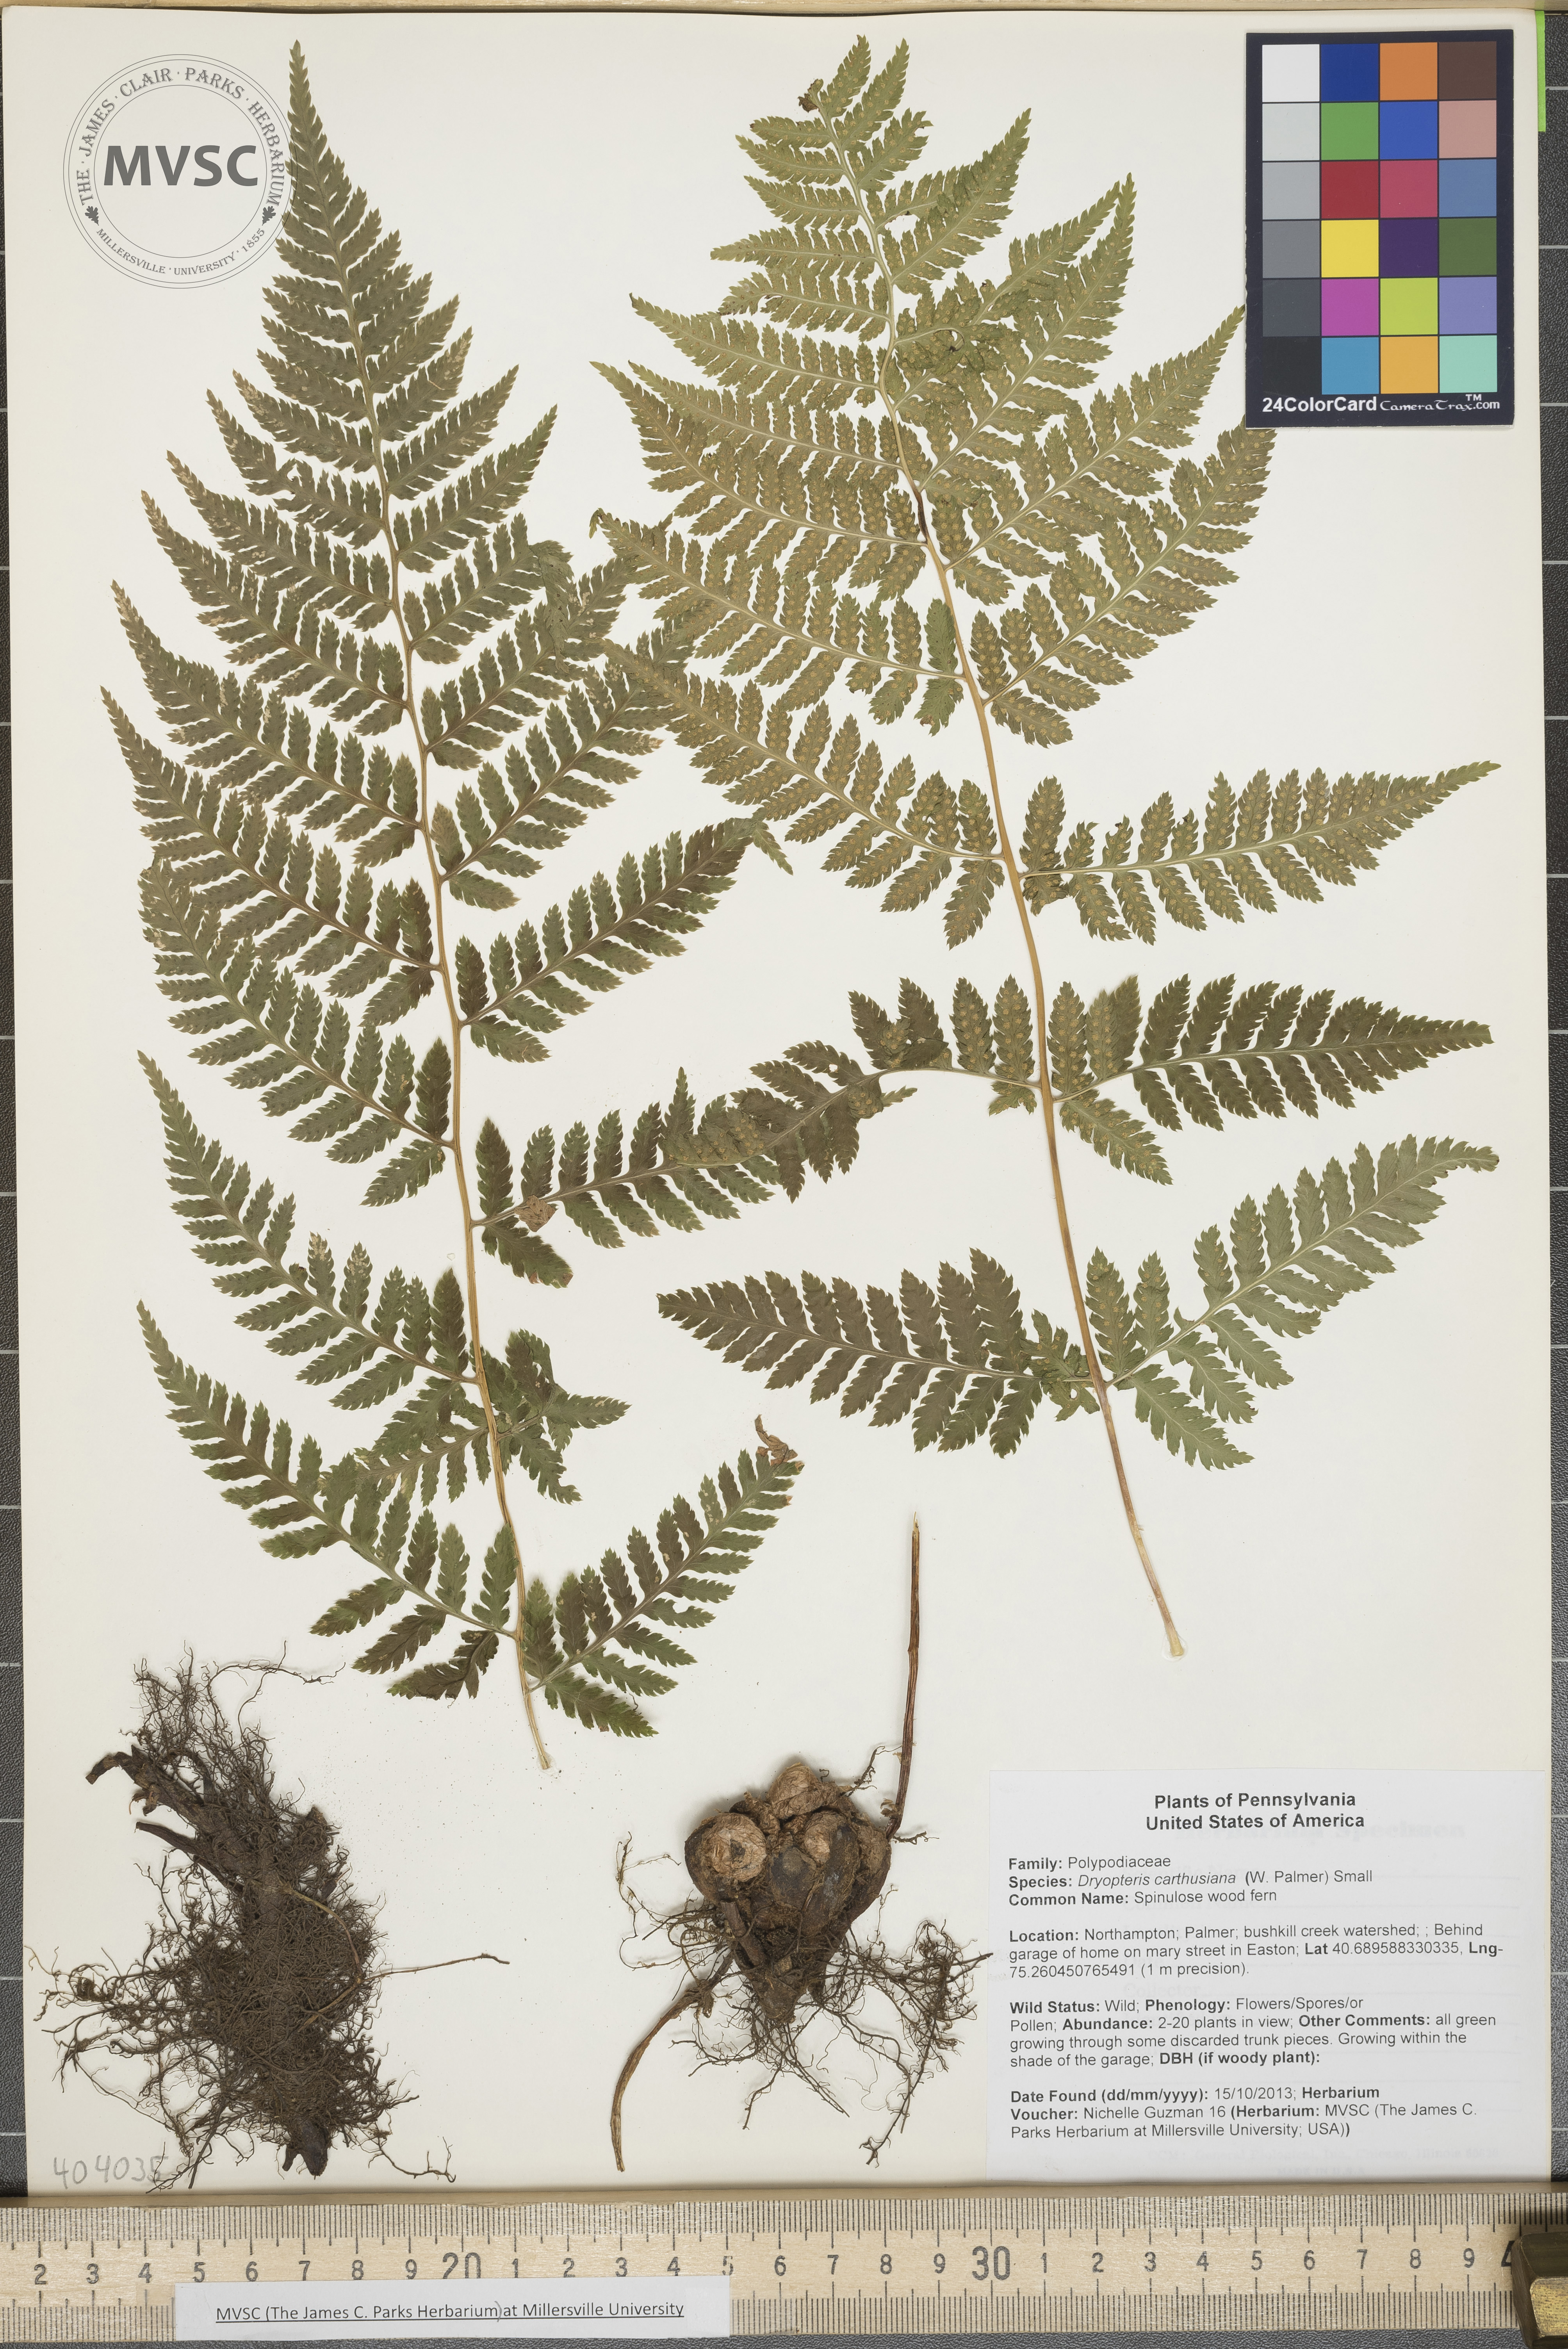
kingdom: Plantae
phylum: Tracheophyta
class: Polypodiopsida
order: Polypodiales
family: Dryopteridaceae
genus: Dryopteris
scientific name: Dryopteris carthusiana
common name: Spinulose wood fern
